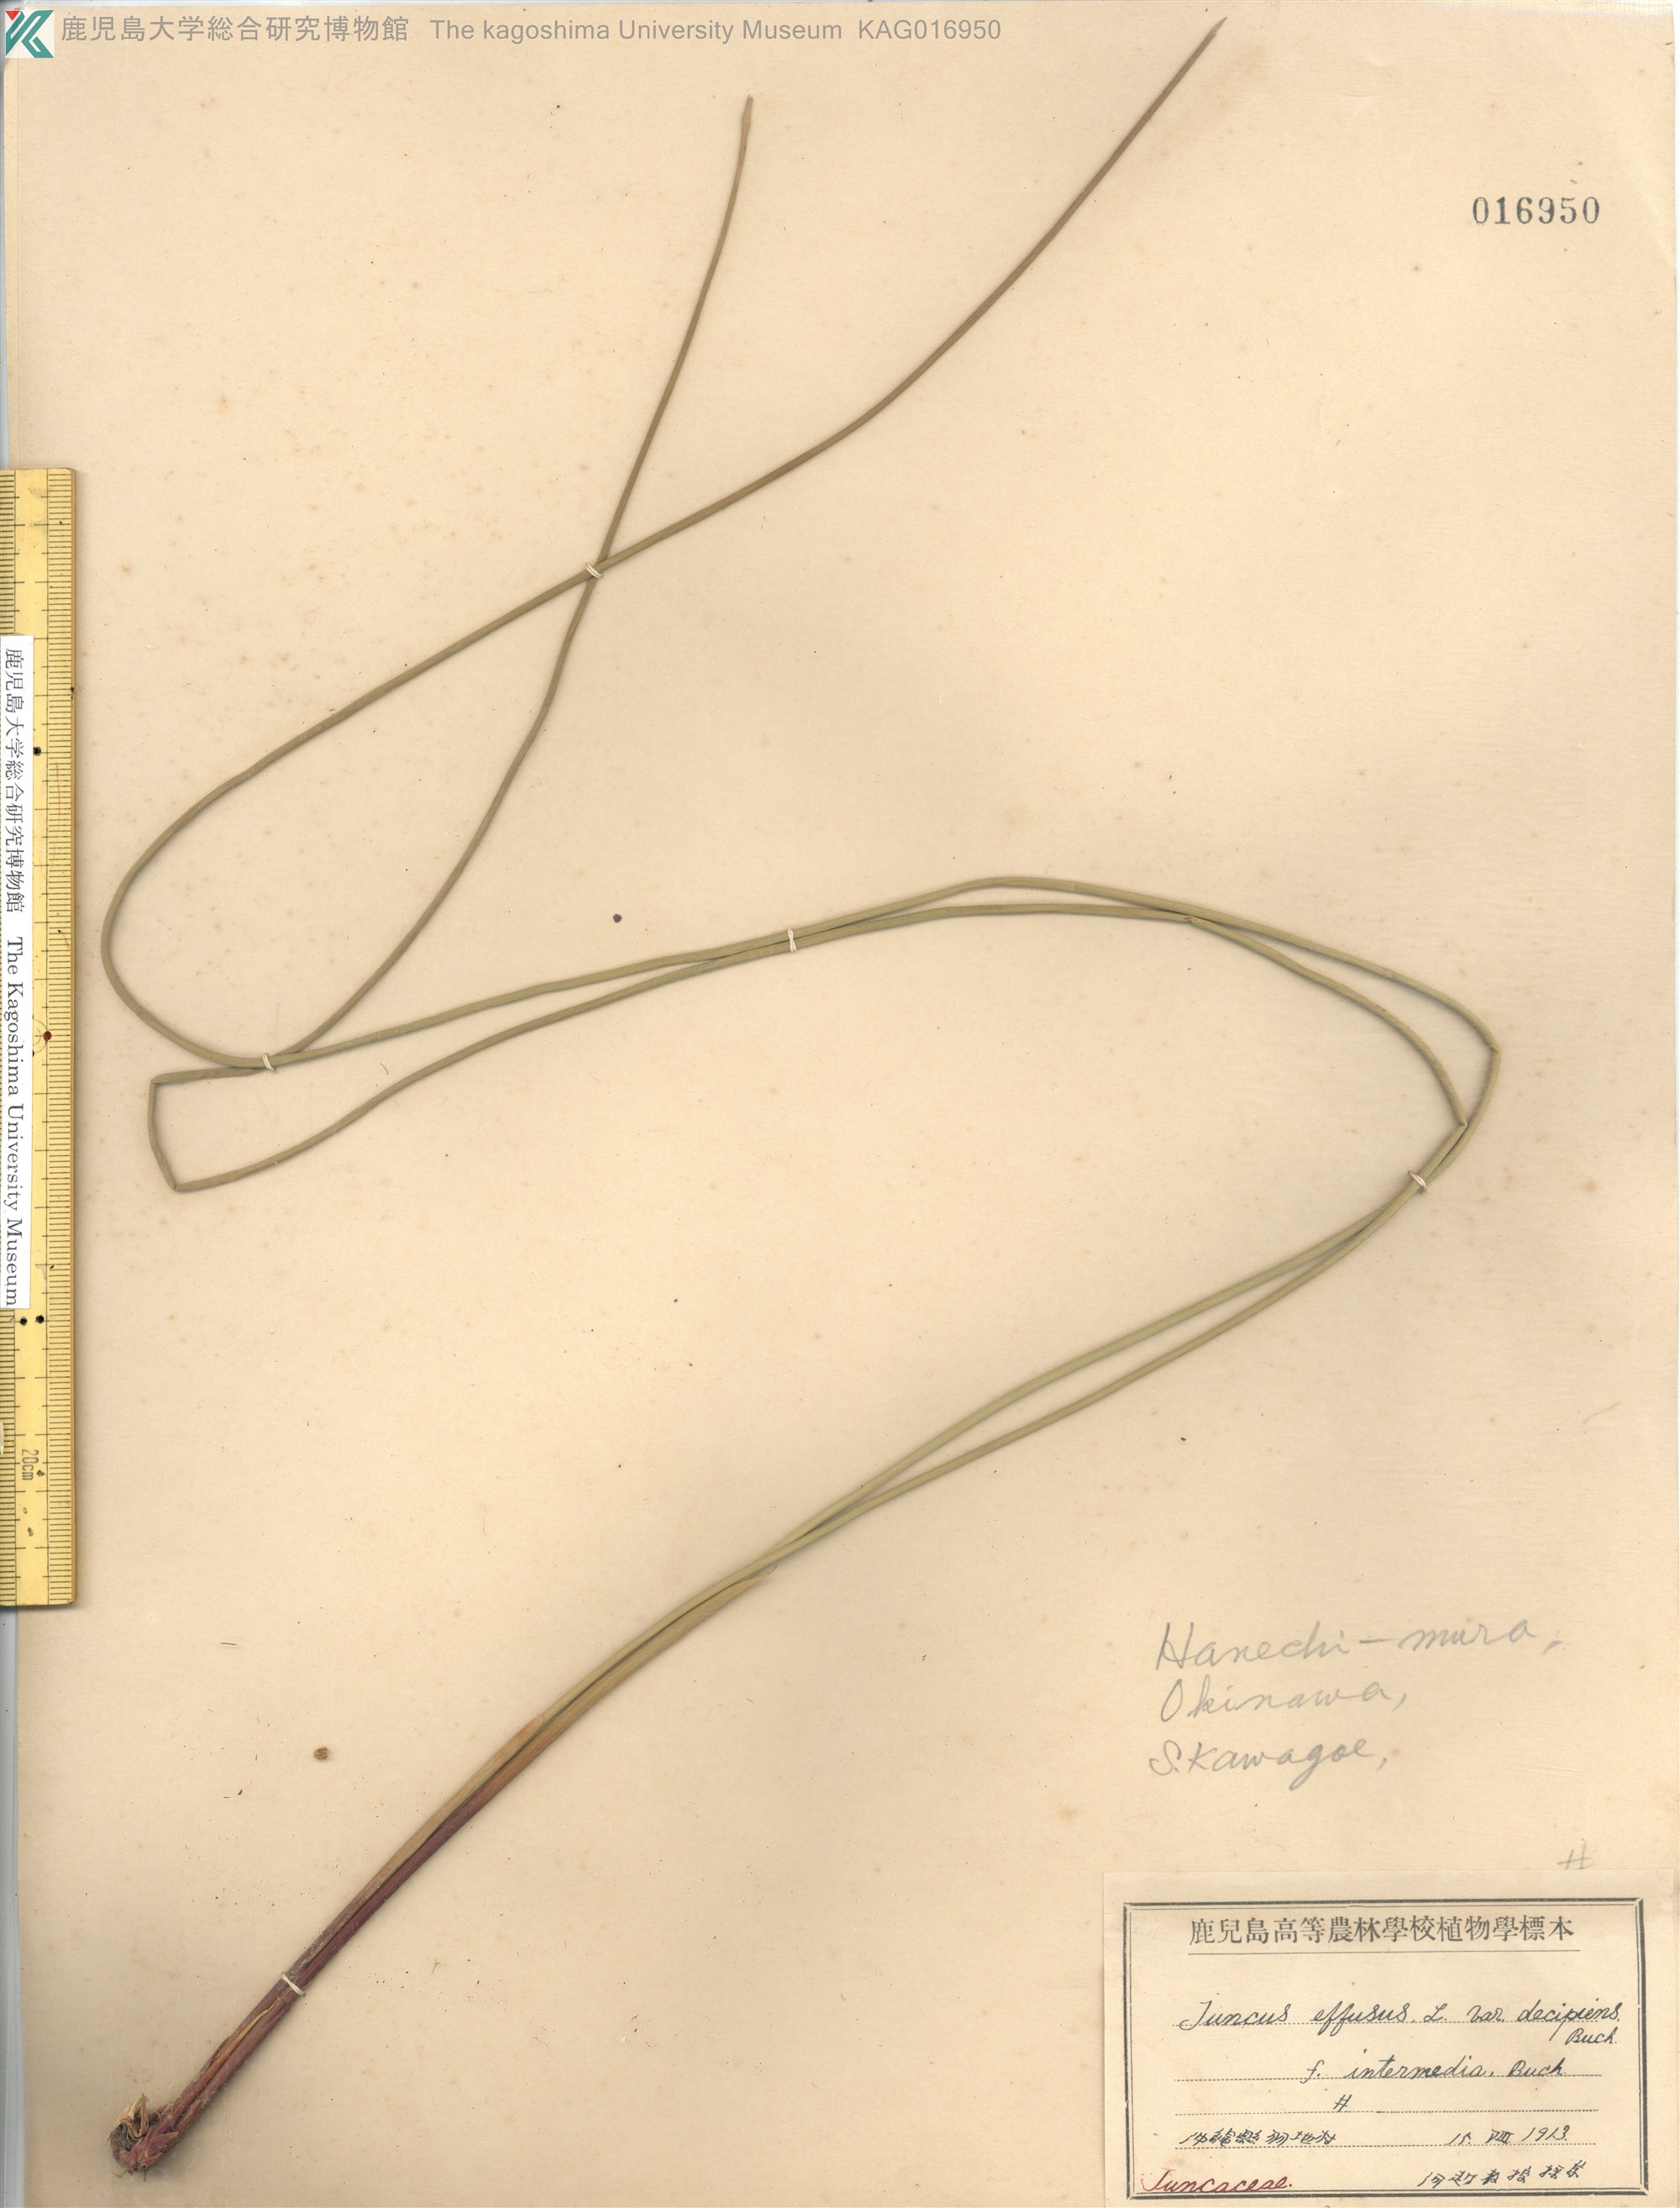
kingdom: Plantae
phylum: Tracheophyta
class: Liliopsida
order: Poales
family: Juncaceae
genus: Juncus
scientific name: Juncus decipiens
